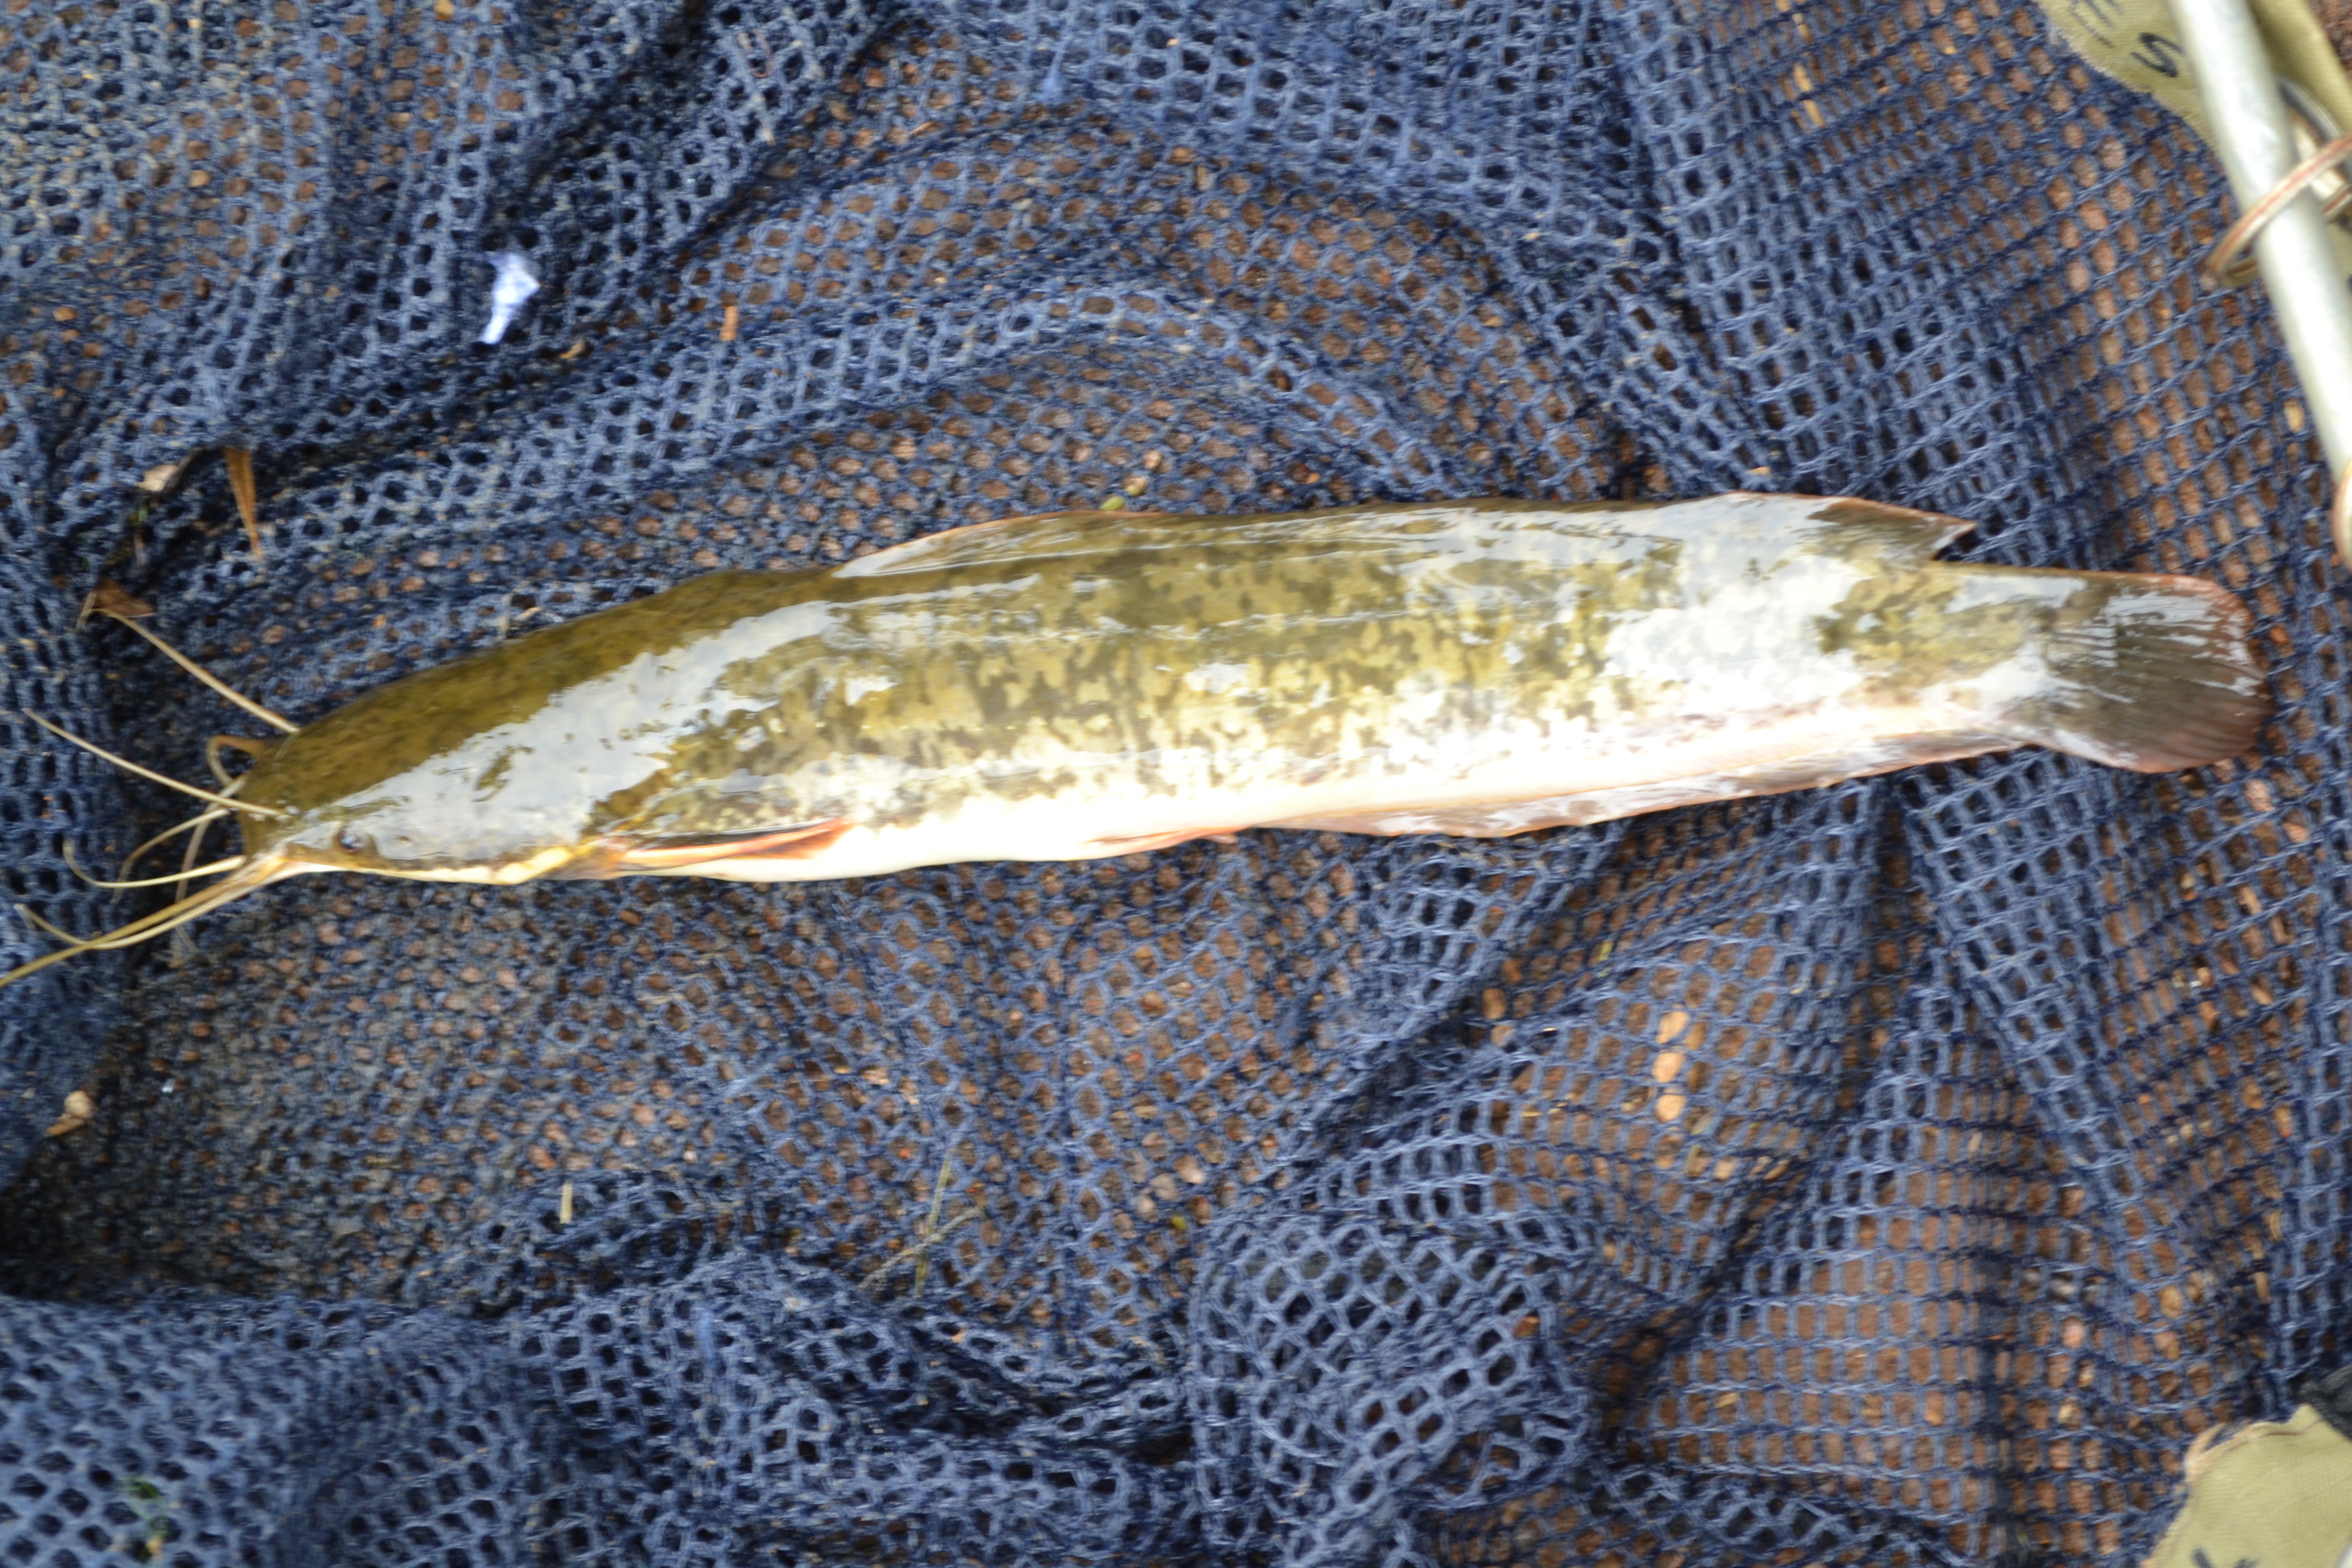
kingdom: Animalia
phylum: Chordata
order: Siluriformes
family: Clariidae
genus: Clarias
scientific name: Clarias gariepinus
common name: African catfish
